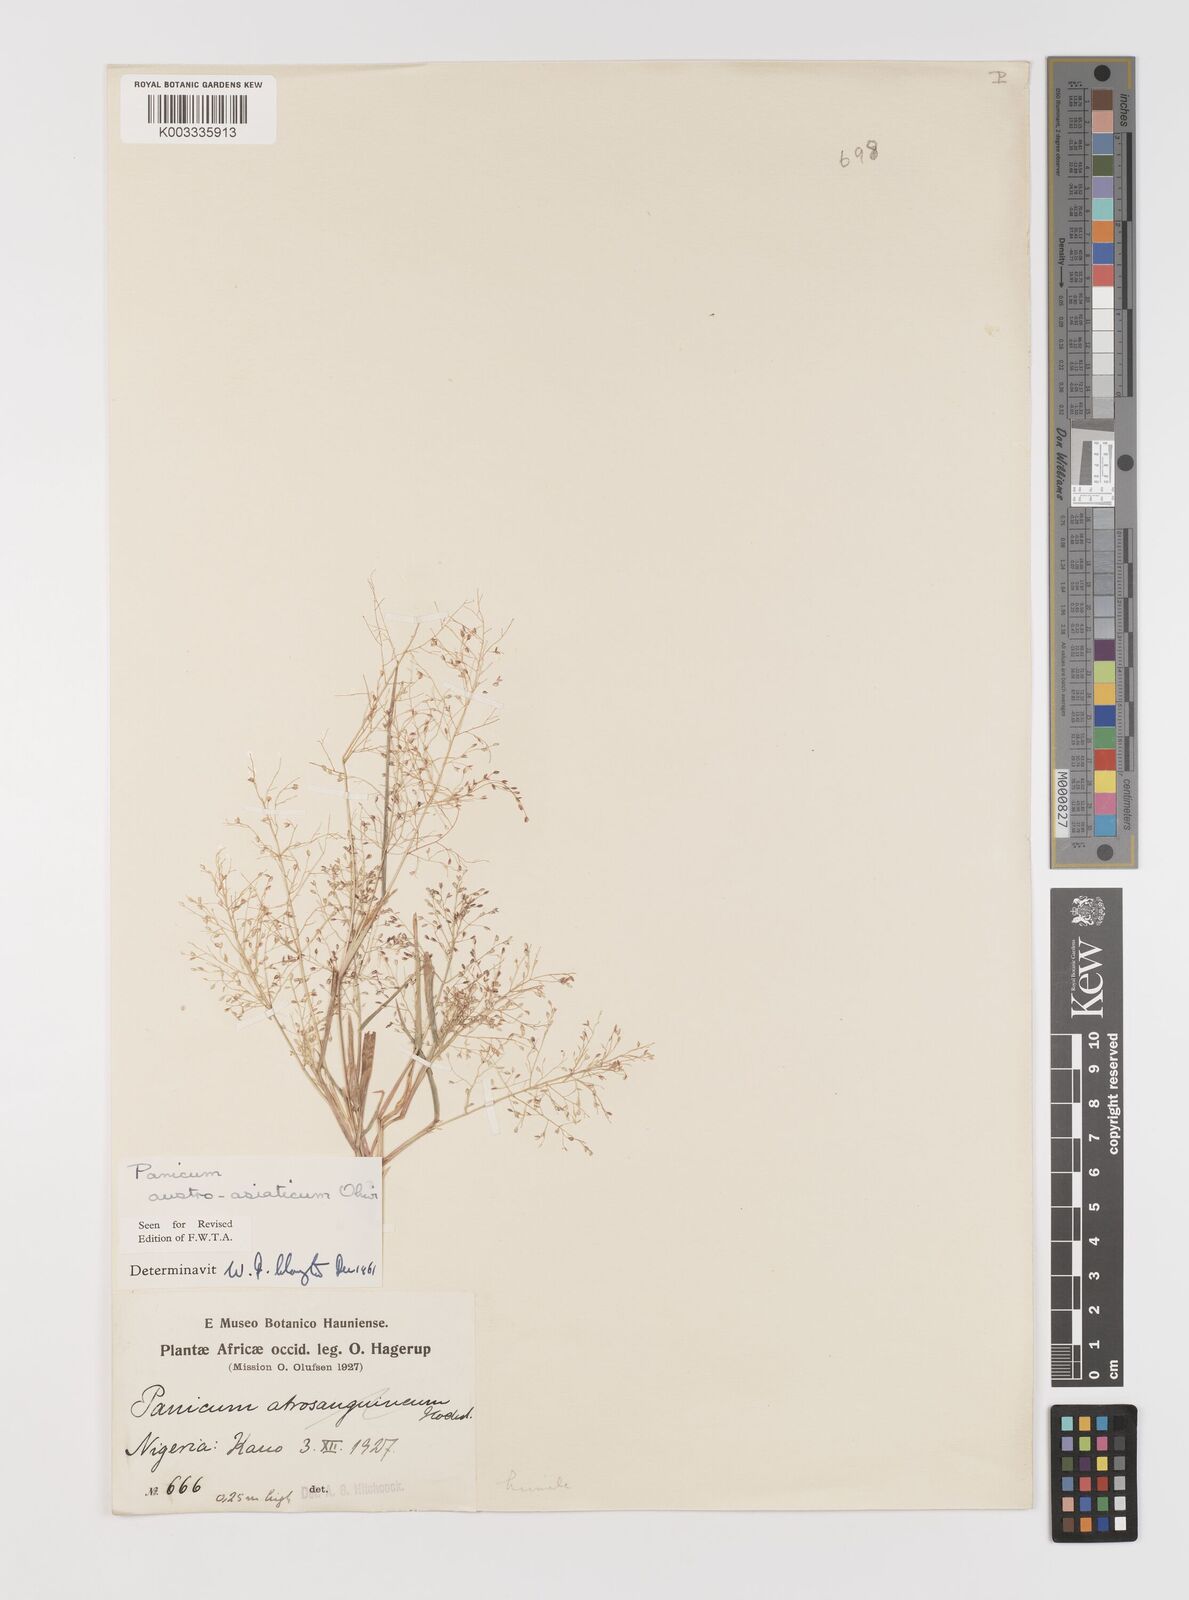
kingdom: Plantae
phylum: Tracheophyta
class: Liliopsida
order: Poales
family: Poaceae
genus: Panicum
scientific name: Panicum humile
